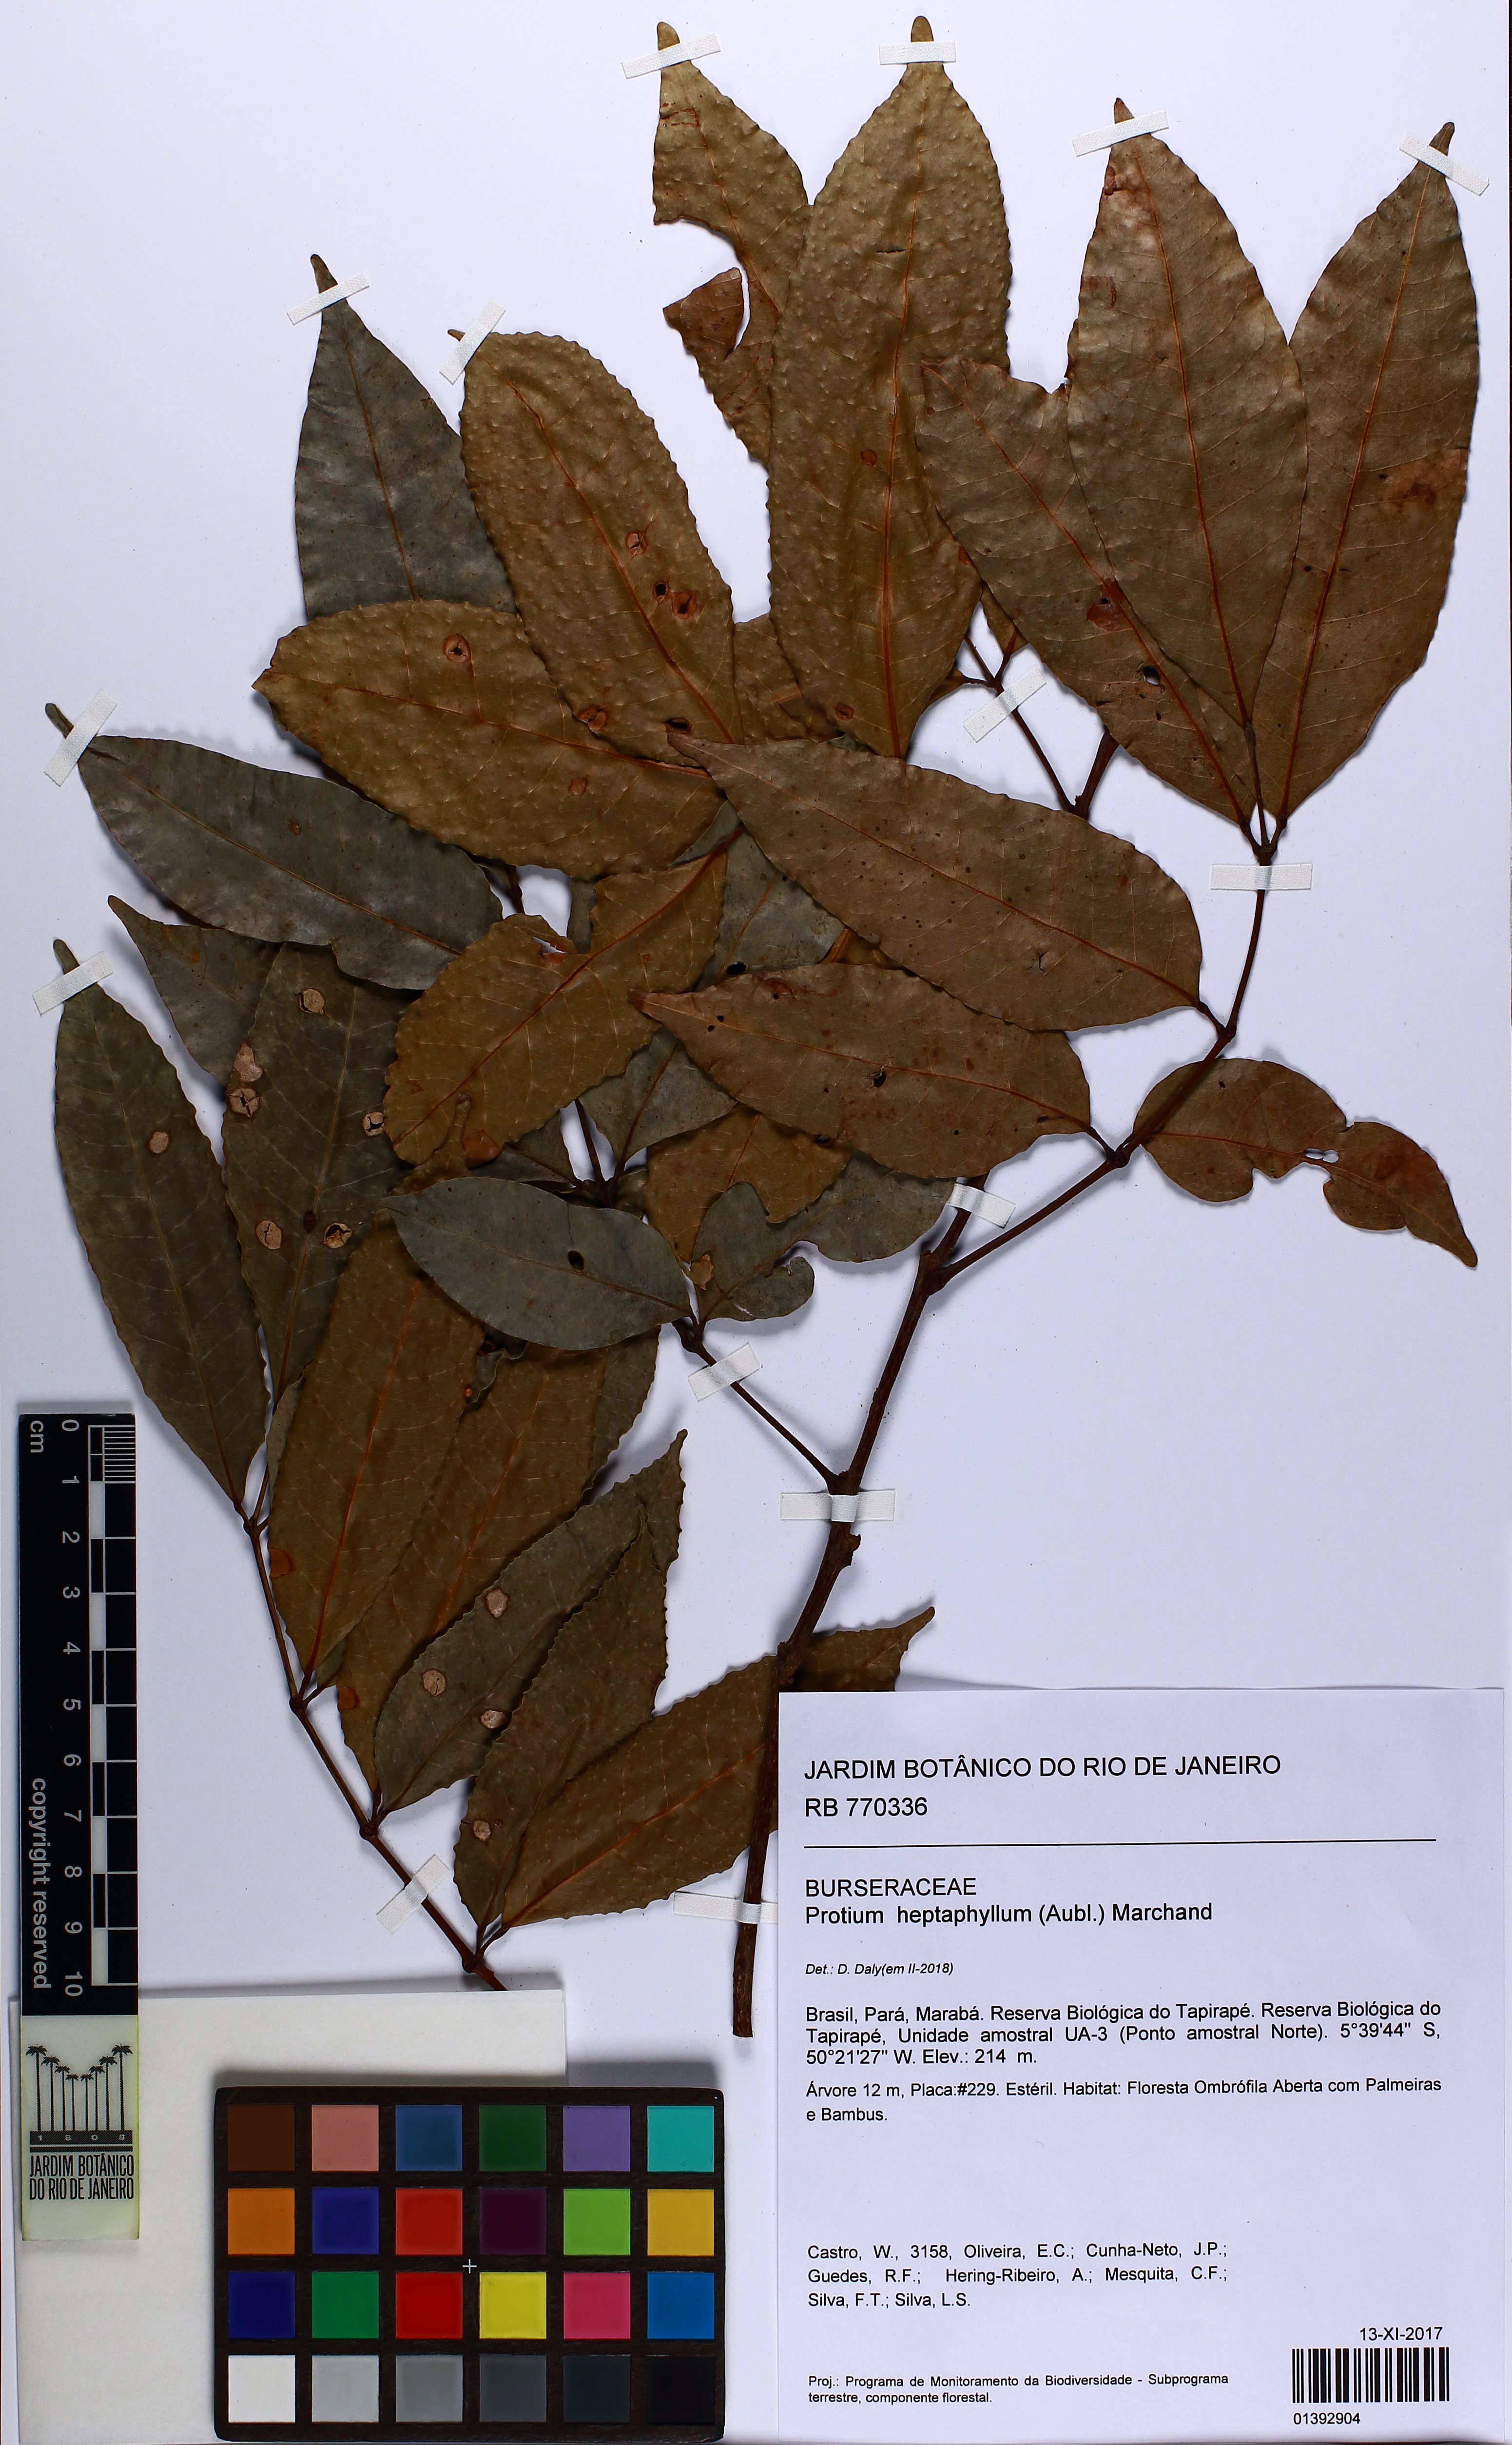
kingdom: Plantae
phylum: Tracheophyta
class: Magnoliopsida
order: Sapindales
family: Burseraceae
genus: Protium
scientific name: Protium heptaphyllum
